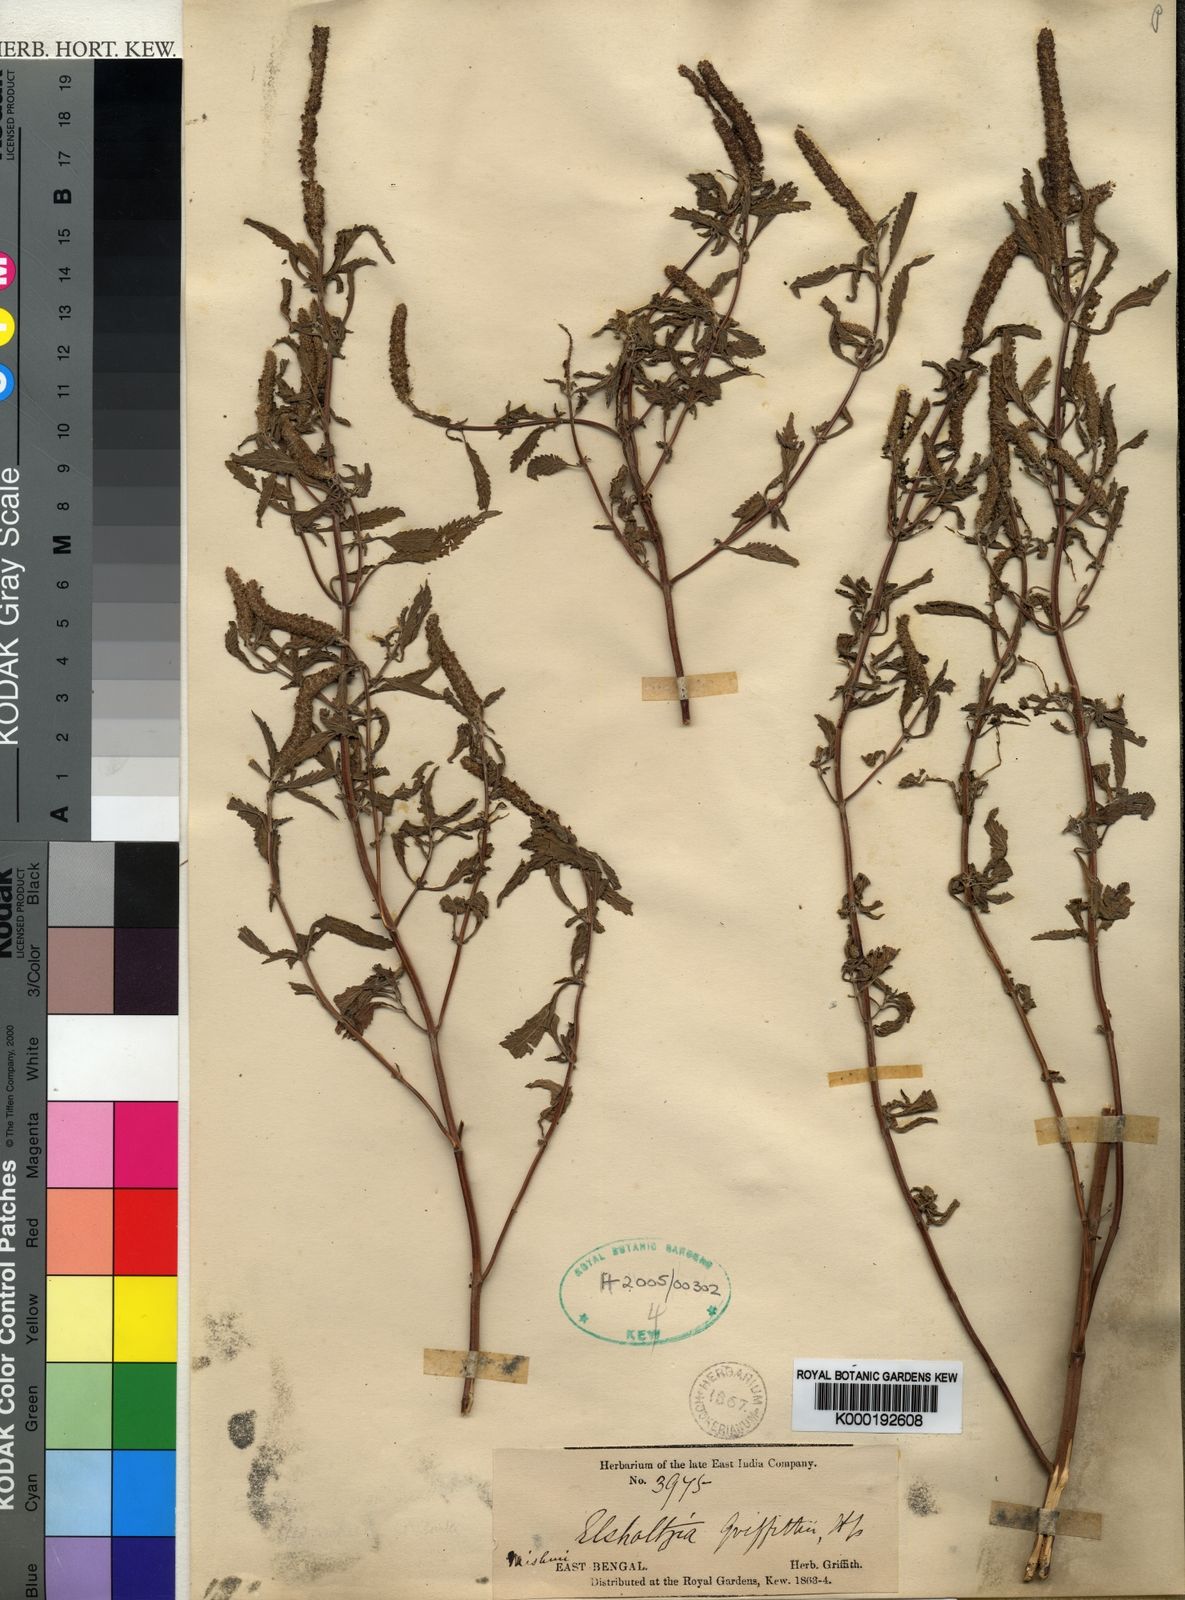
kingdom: Plantae
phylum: Tracheophyta
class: Magnoliopsida
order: Lamiales
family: Lamiaceae
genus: Elsholtzia
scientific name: Elsholtzia griffithii
